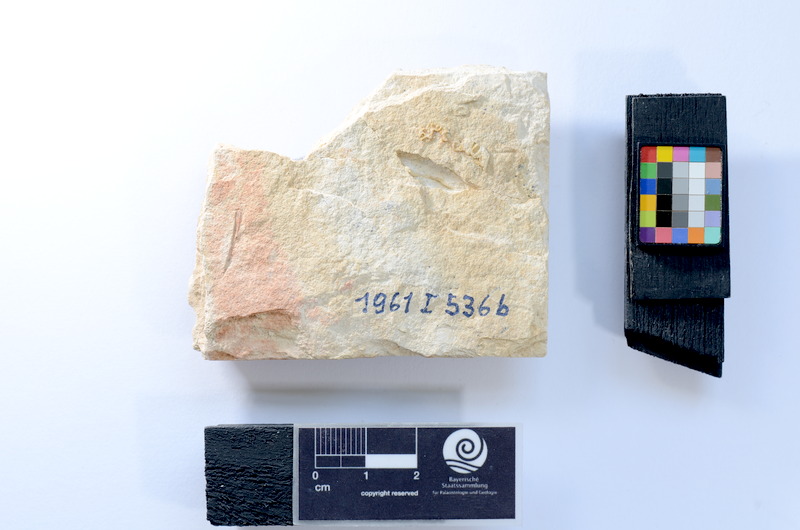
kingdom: Animalia
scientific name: Animalia
